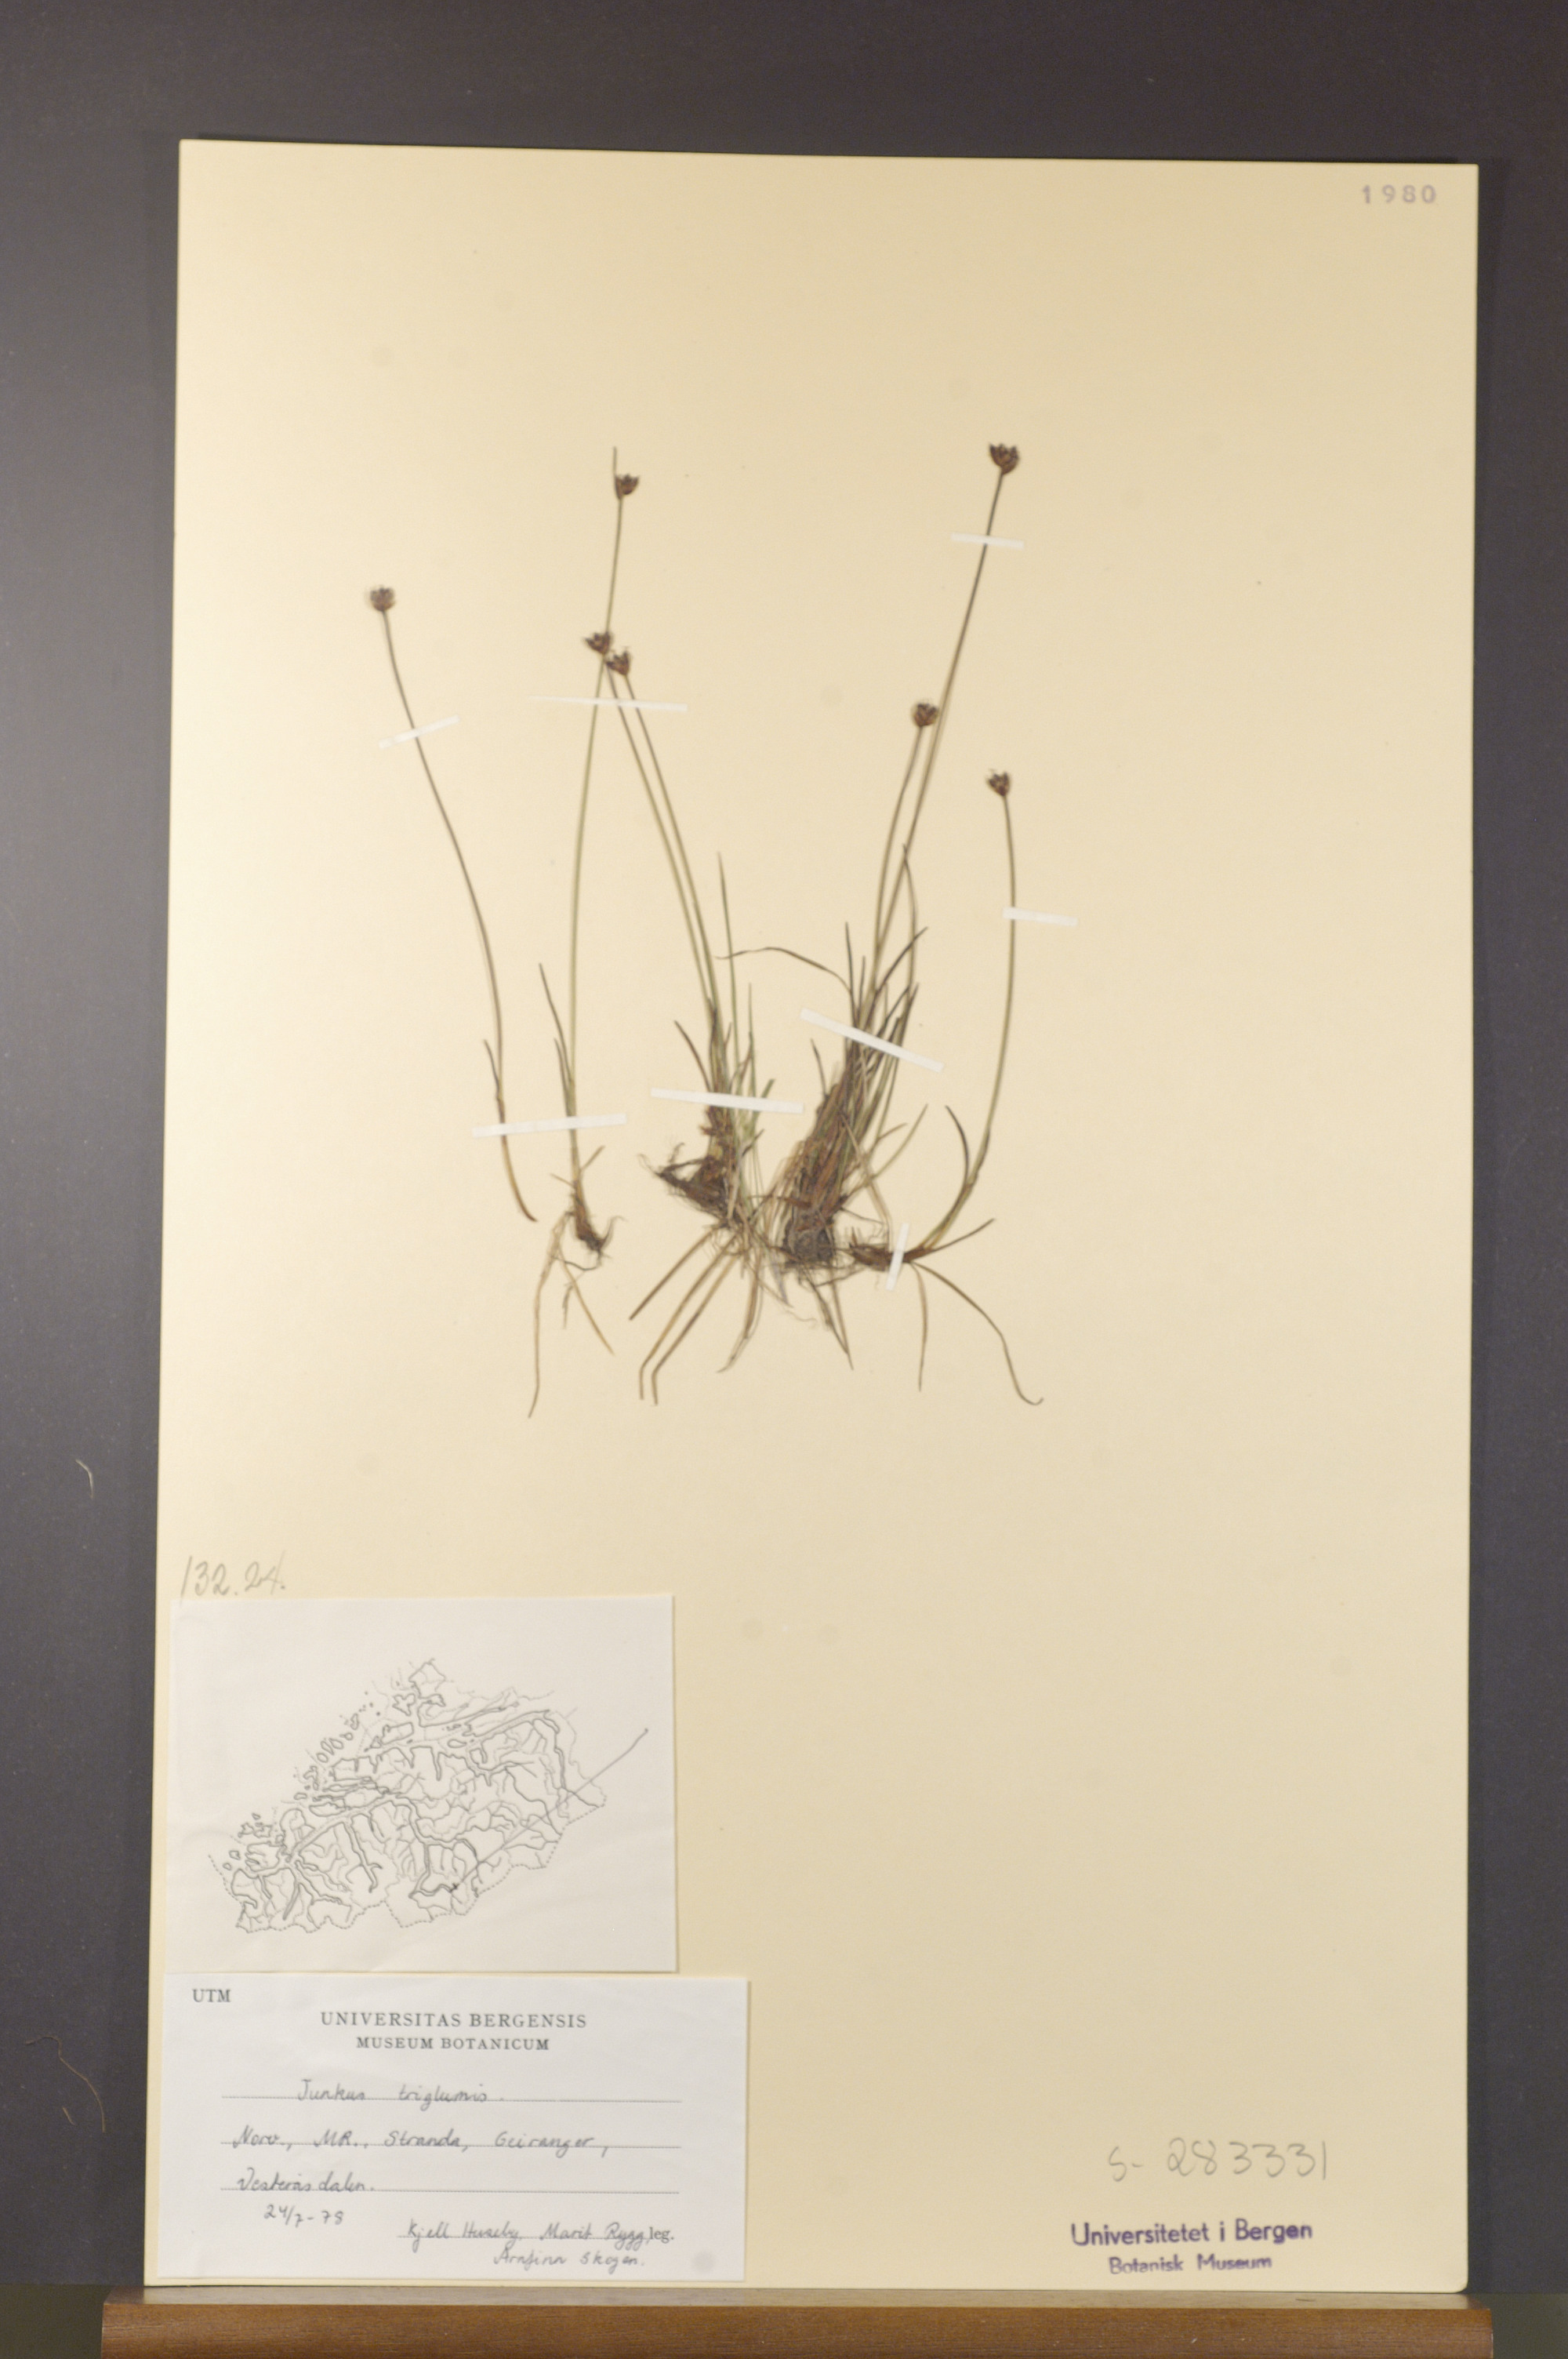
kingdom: Plantae
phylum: Tracheophyta
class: Liliopsida
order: Poales
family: Juncaceae
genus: Juncus
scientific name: Juncus triglumis
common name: Three-flowered rush
